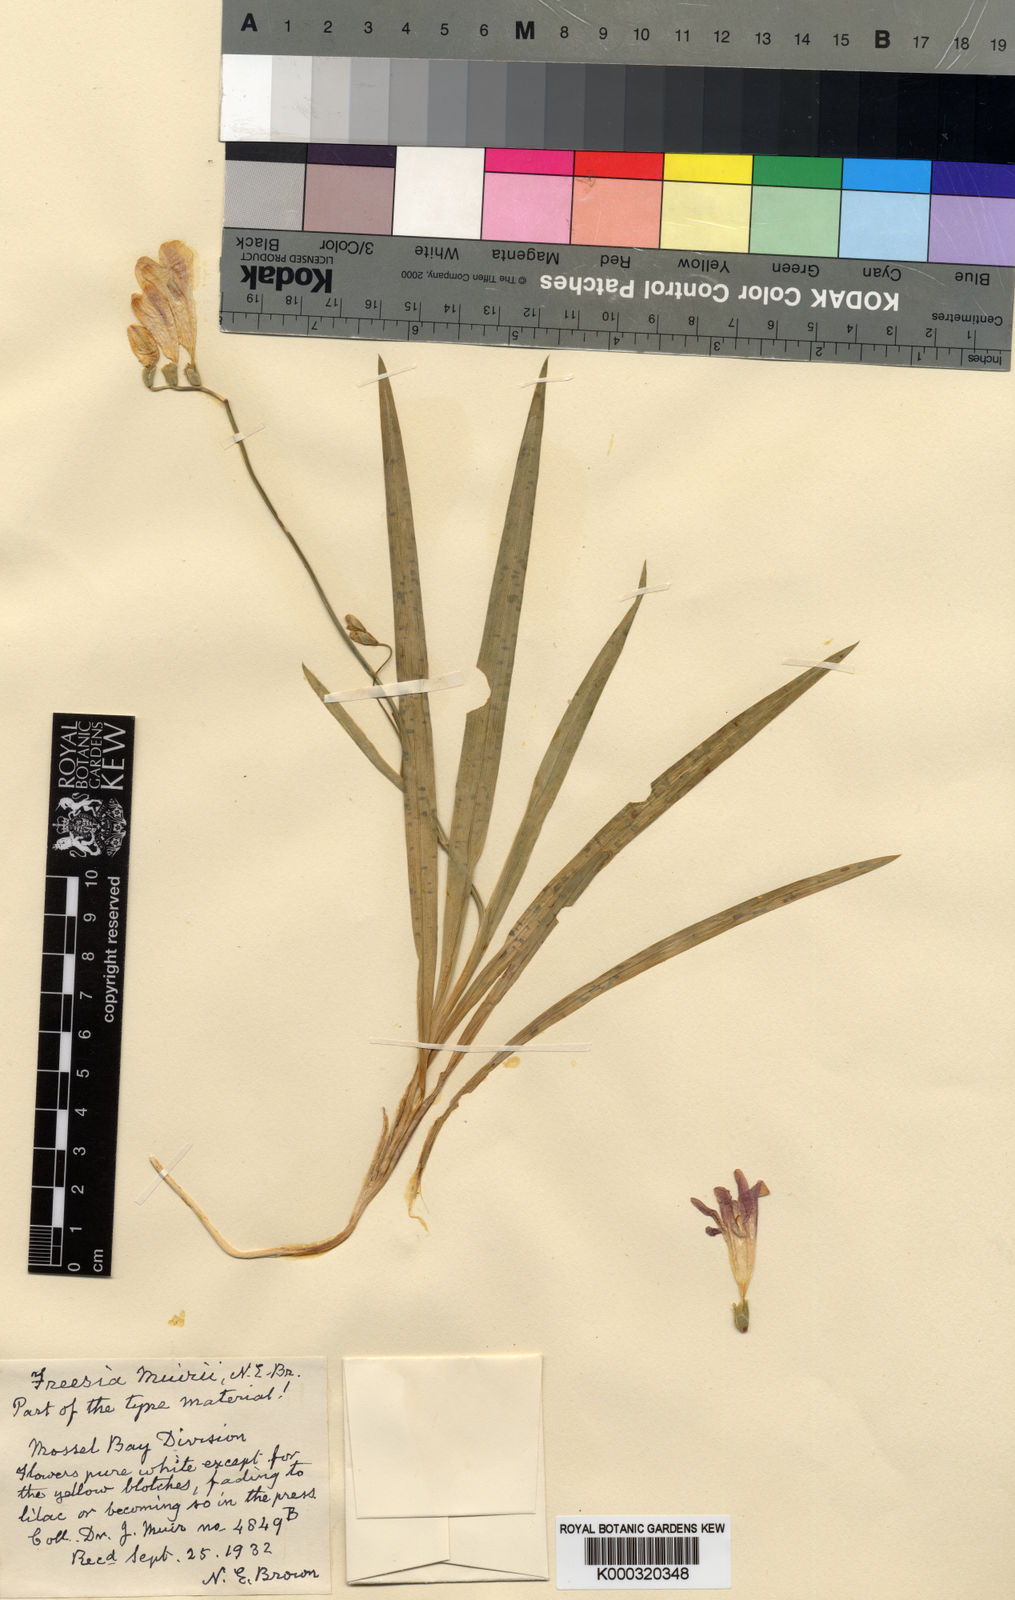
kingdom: Plantae
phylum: Tracheophyta
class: Liliopsida
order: Asparagales
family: Iridaceae
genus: Freesia
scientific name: Freesia leichtlinii
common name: Freesia
